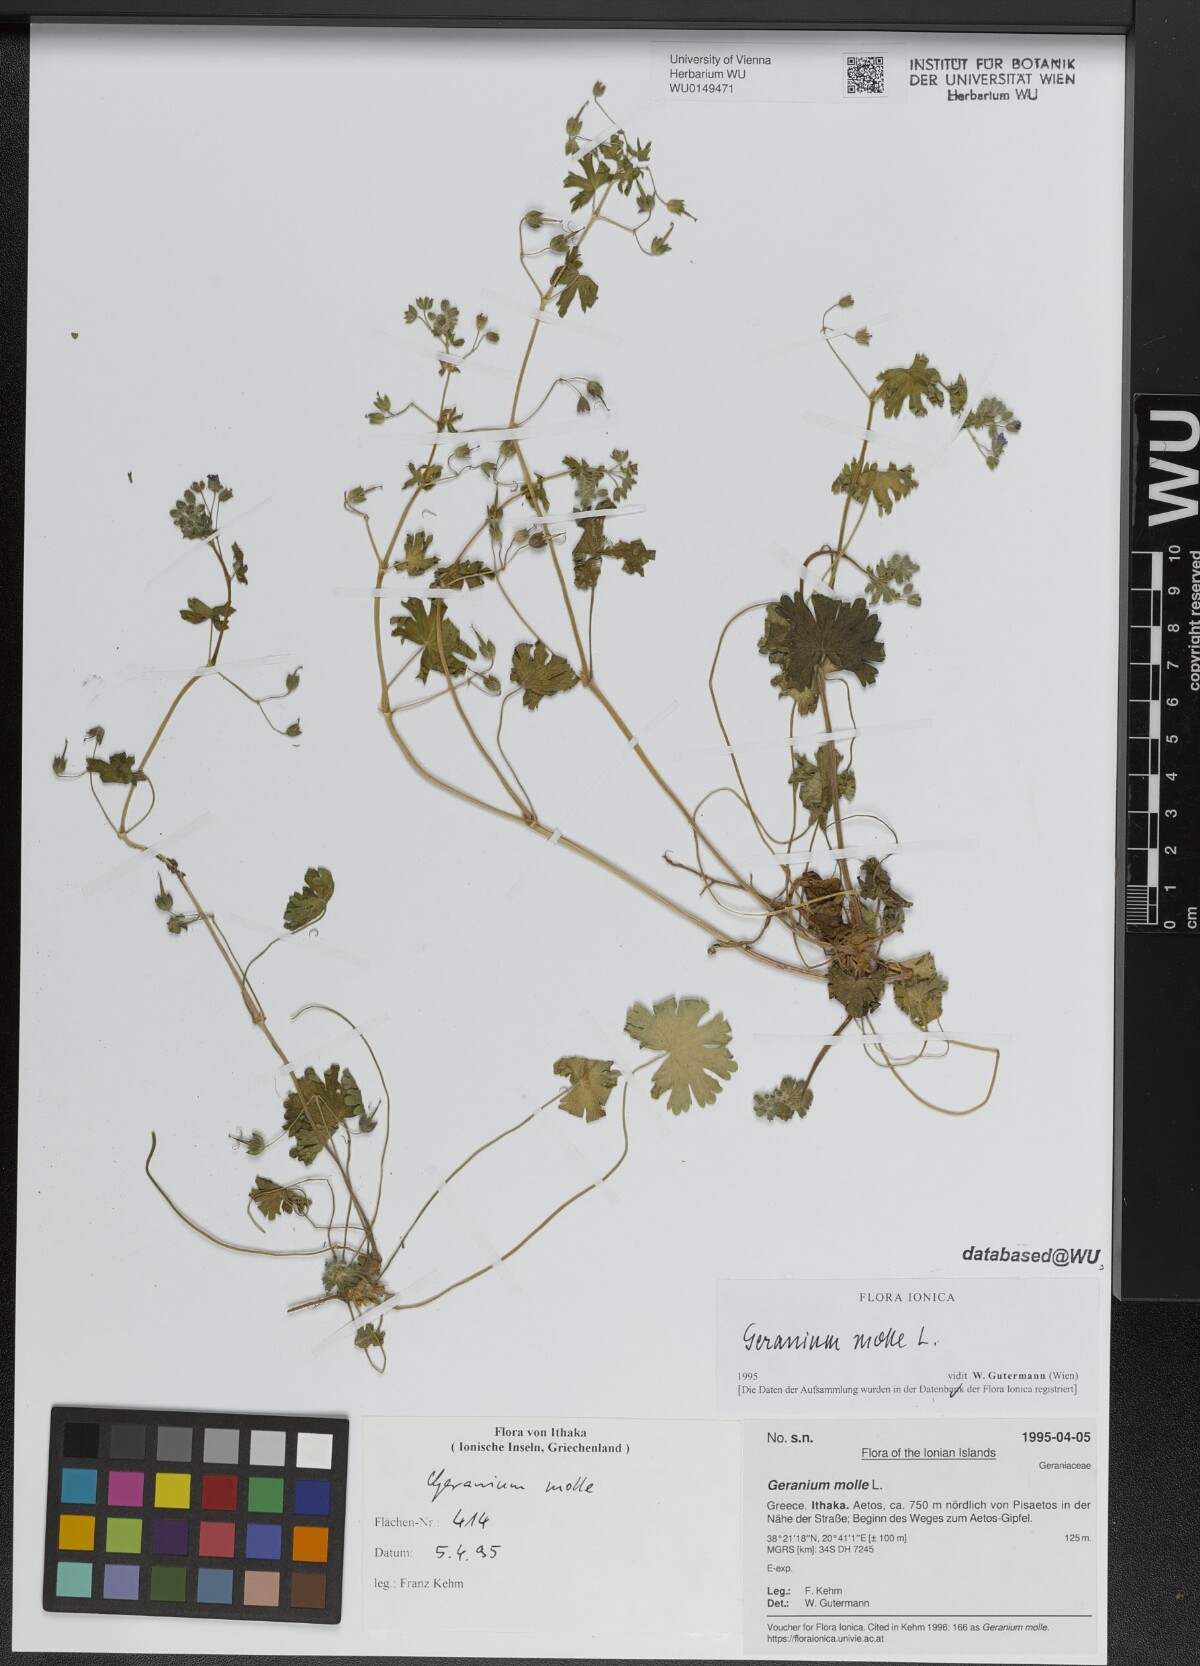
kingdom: Plantae
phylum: Tracheophyta
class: Magnoliopsida
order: Geraniales
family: Geraniaceae
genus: Geranium
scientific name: Geranium molle
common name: Dove's-foot crane's-bill
